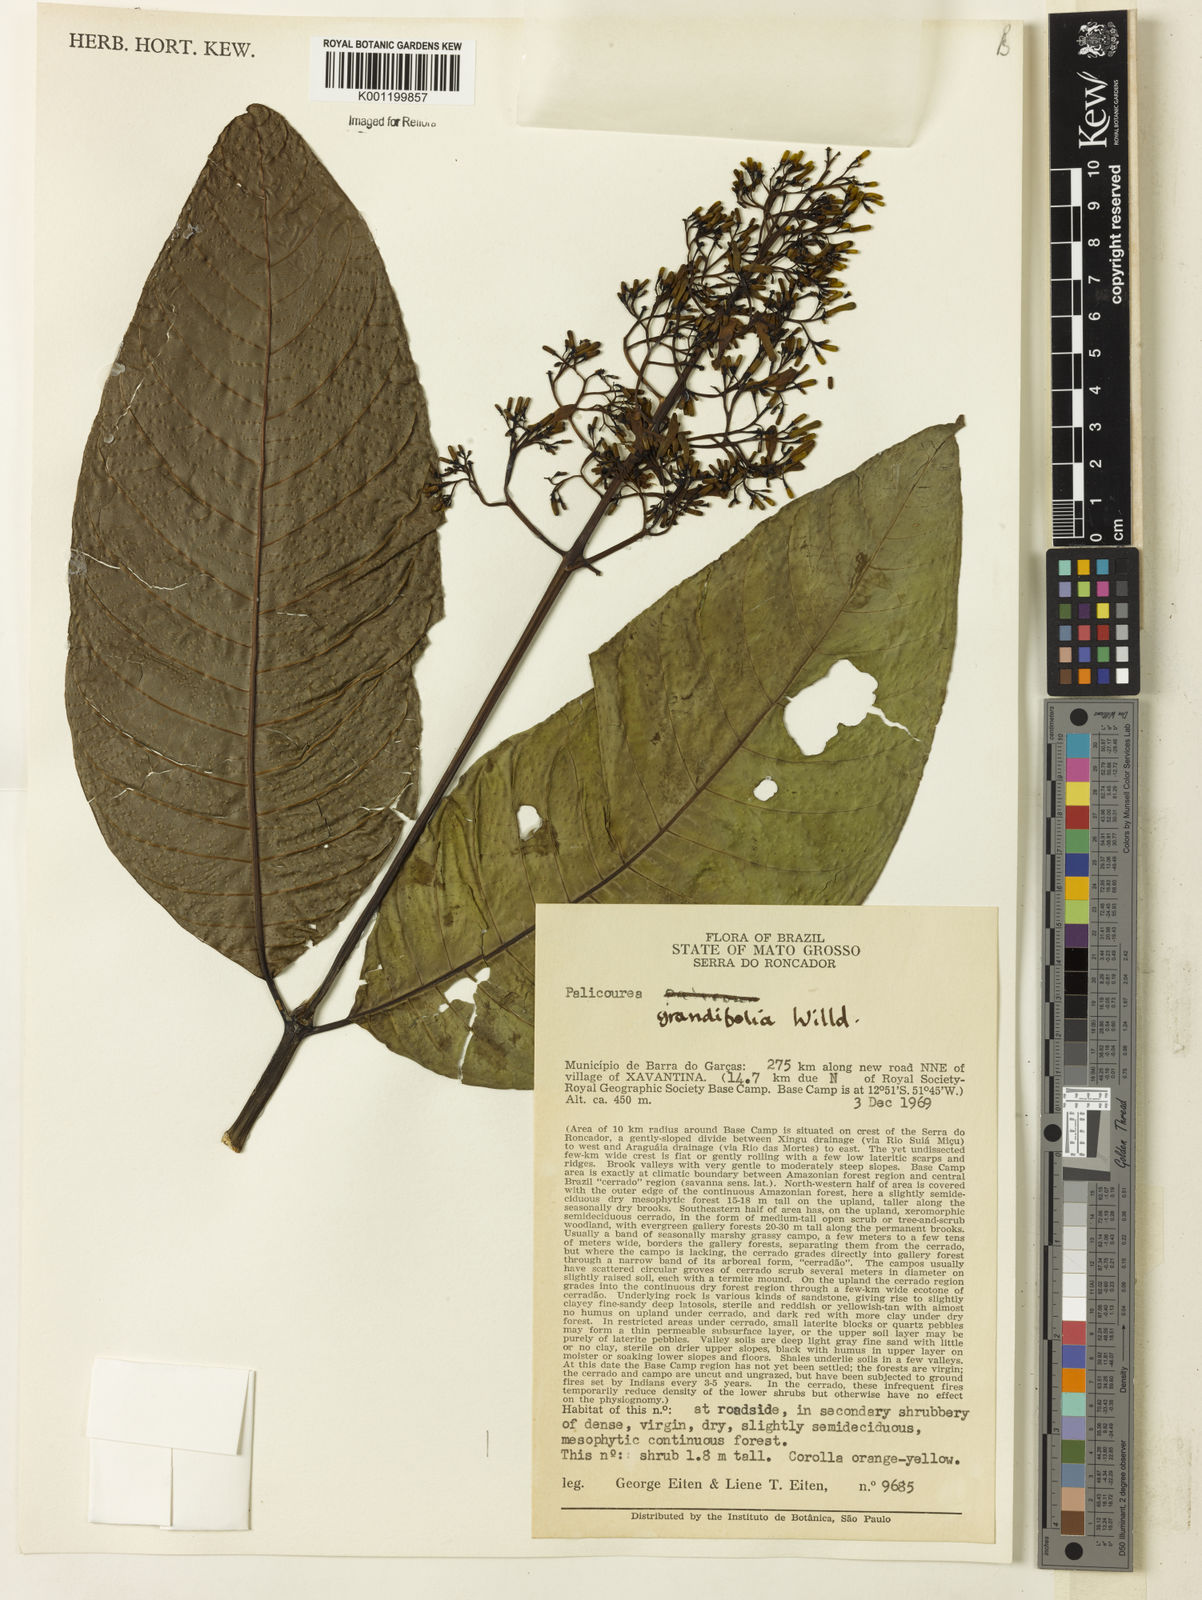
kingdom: Plantae
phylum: Tracheophyta
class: Magnoliopsida
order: Gentianales
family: Rubiaceae
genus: Palicourea
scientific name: Palicourea grandifolia
